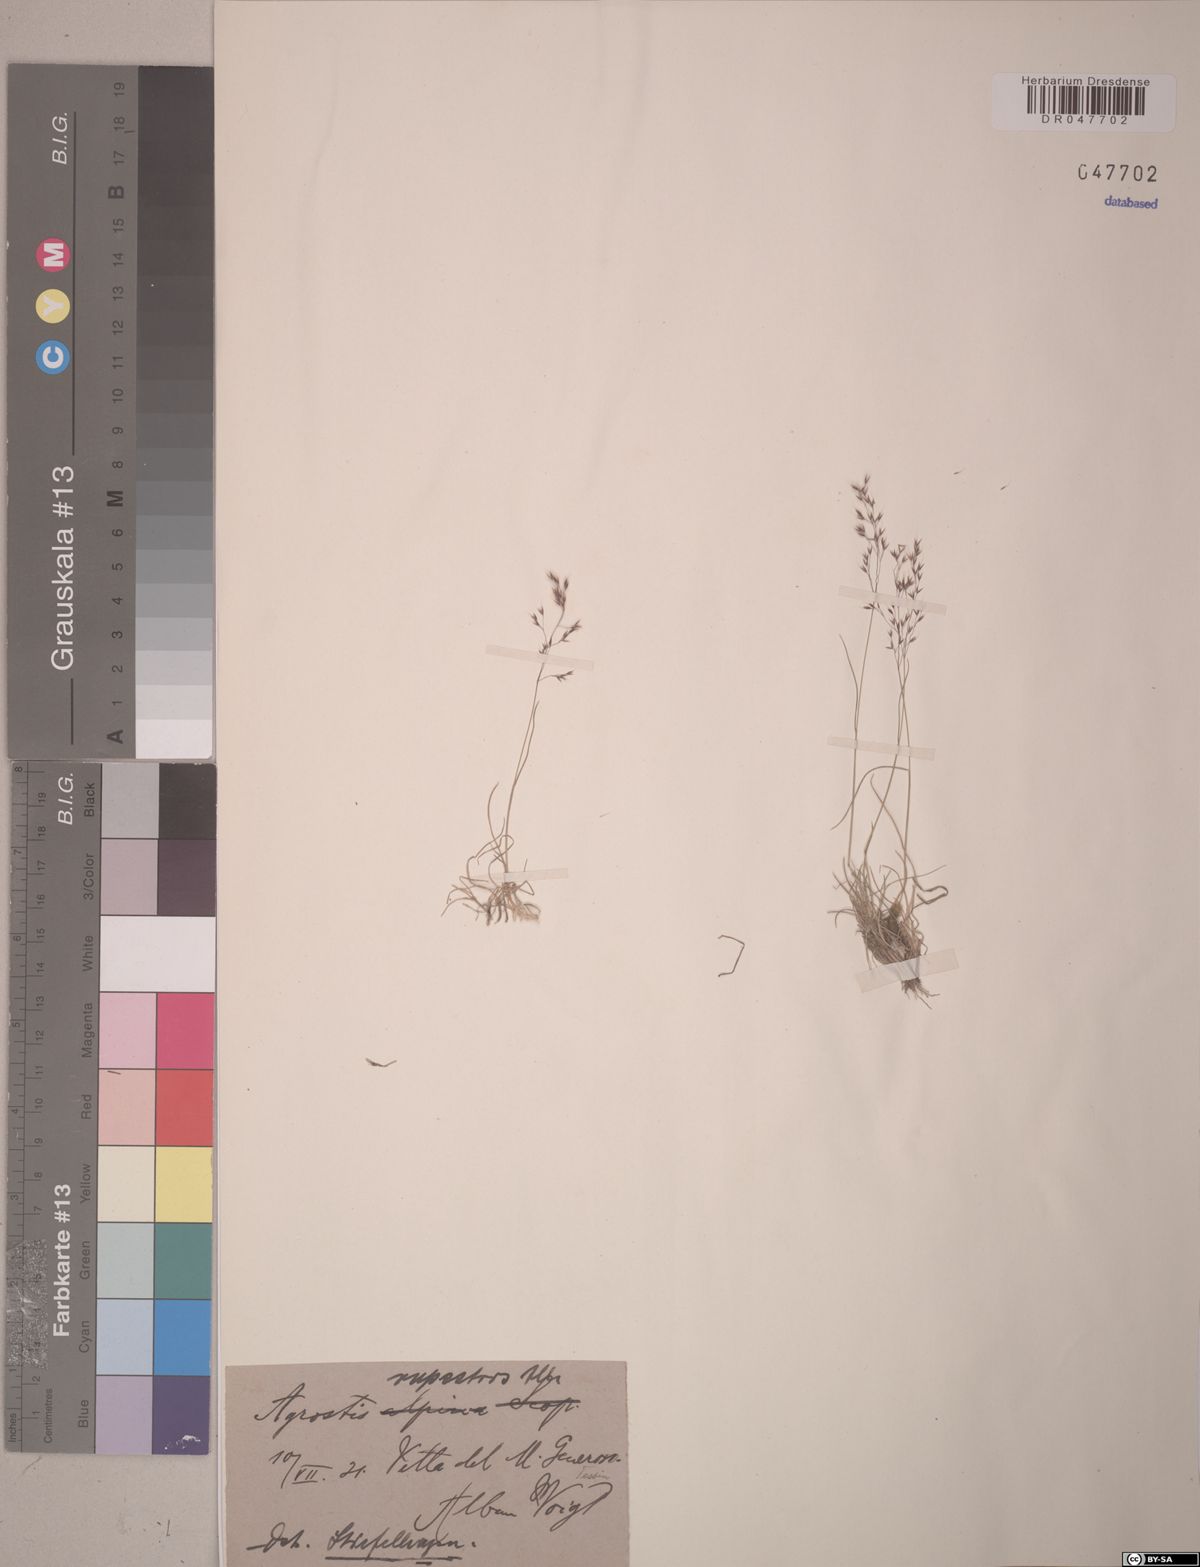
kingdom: Plantae
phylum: Tracheophyta
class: Liliopsida
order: Poales
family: Poaceae
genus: Agrostis
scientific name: Agrostis rupestris
